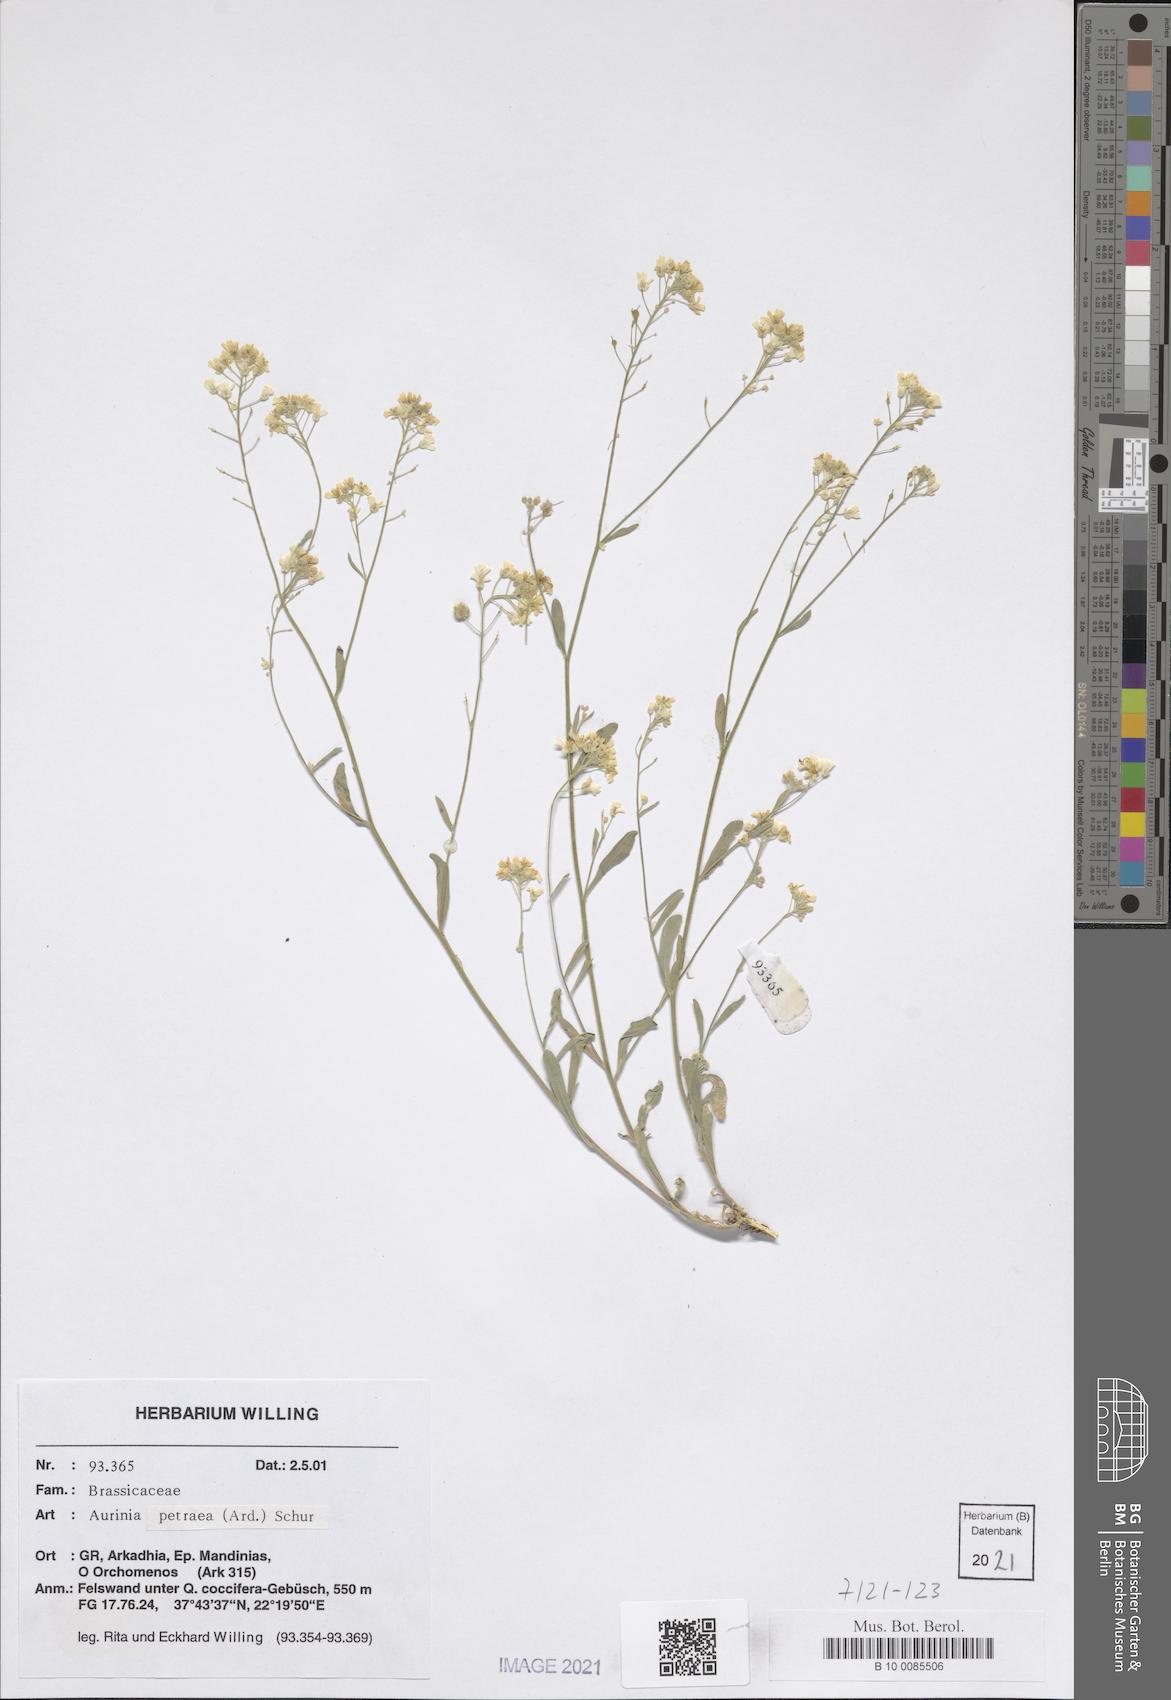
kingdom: Plantae
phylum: Tracheophyta
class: Magnoliopsida
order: Brassicales
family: Brassicaceae
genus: Aurinia
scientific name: Aurinia petraea
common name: Goldentuft
